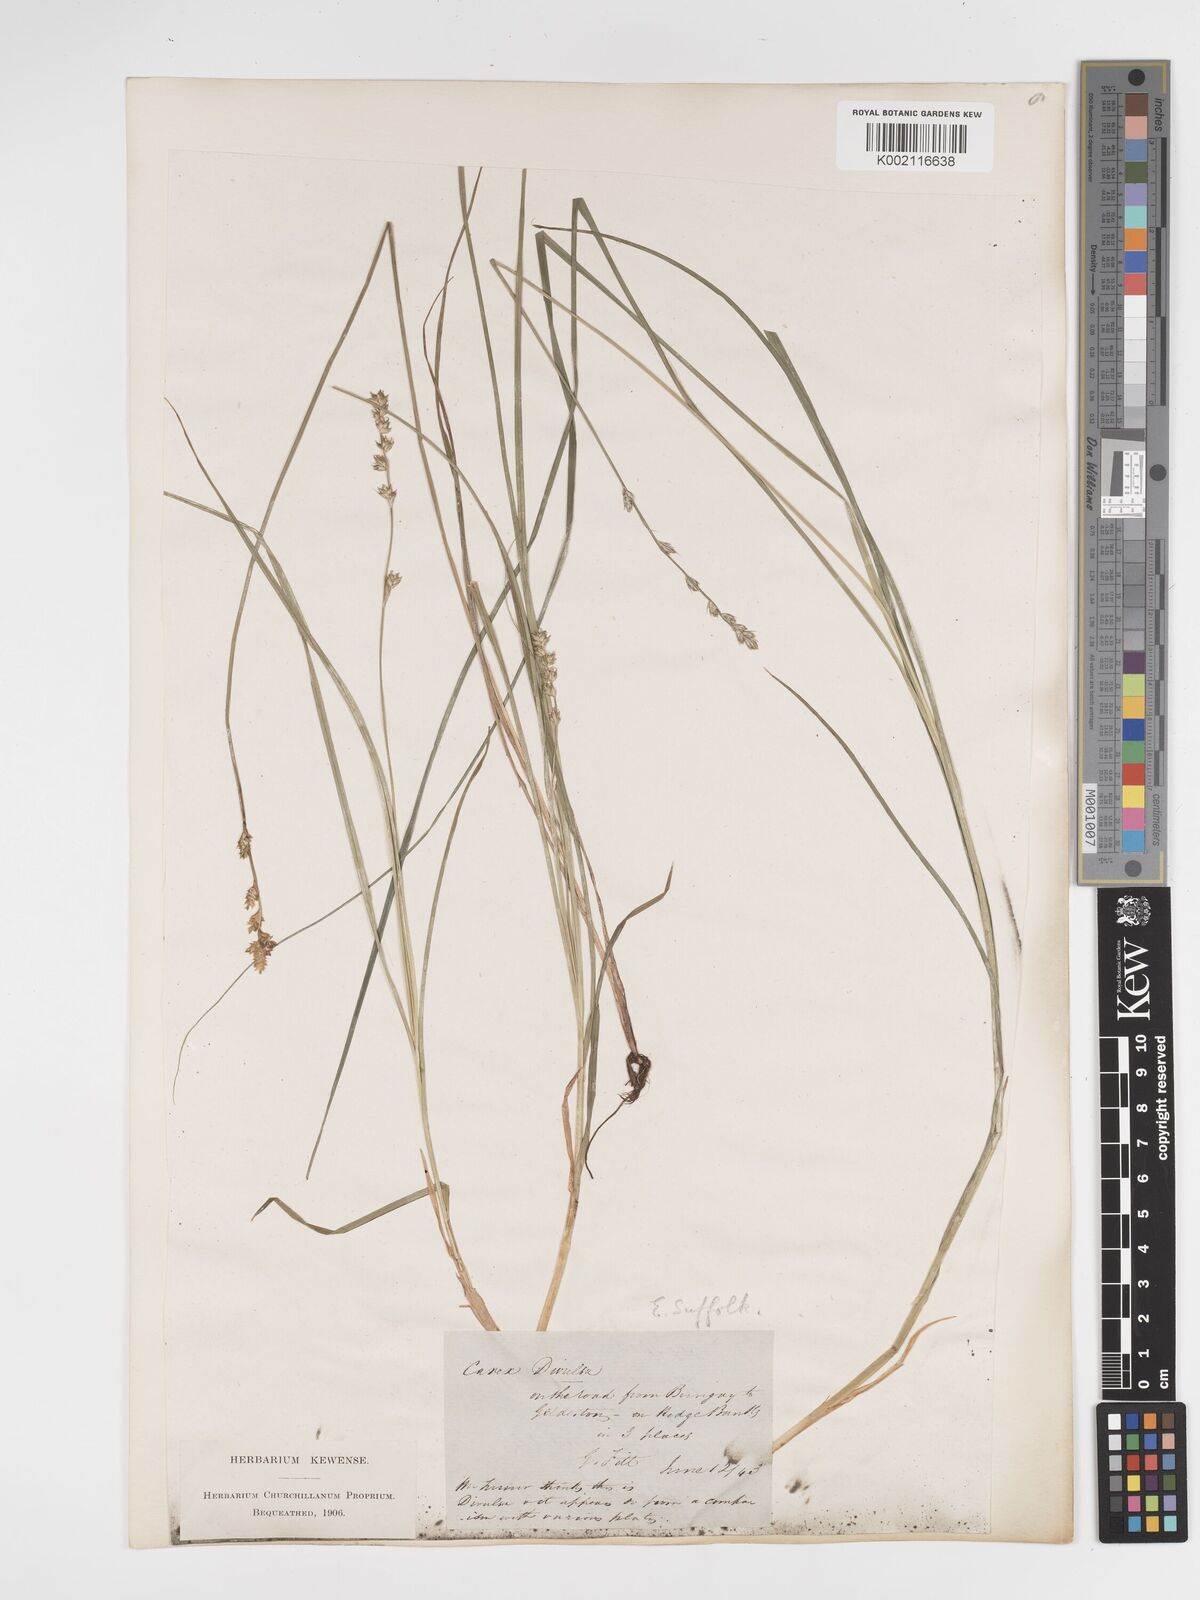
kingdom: Plantae
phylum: Tracheophyta
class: Liliopsida
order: Poales
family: Cyperaceae
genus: Carex
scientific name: Carex divulsa
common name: Grassland sedge
